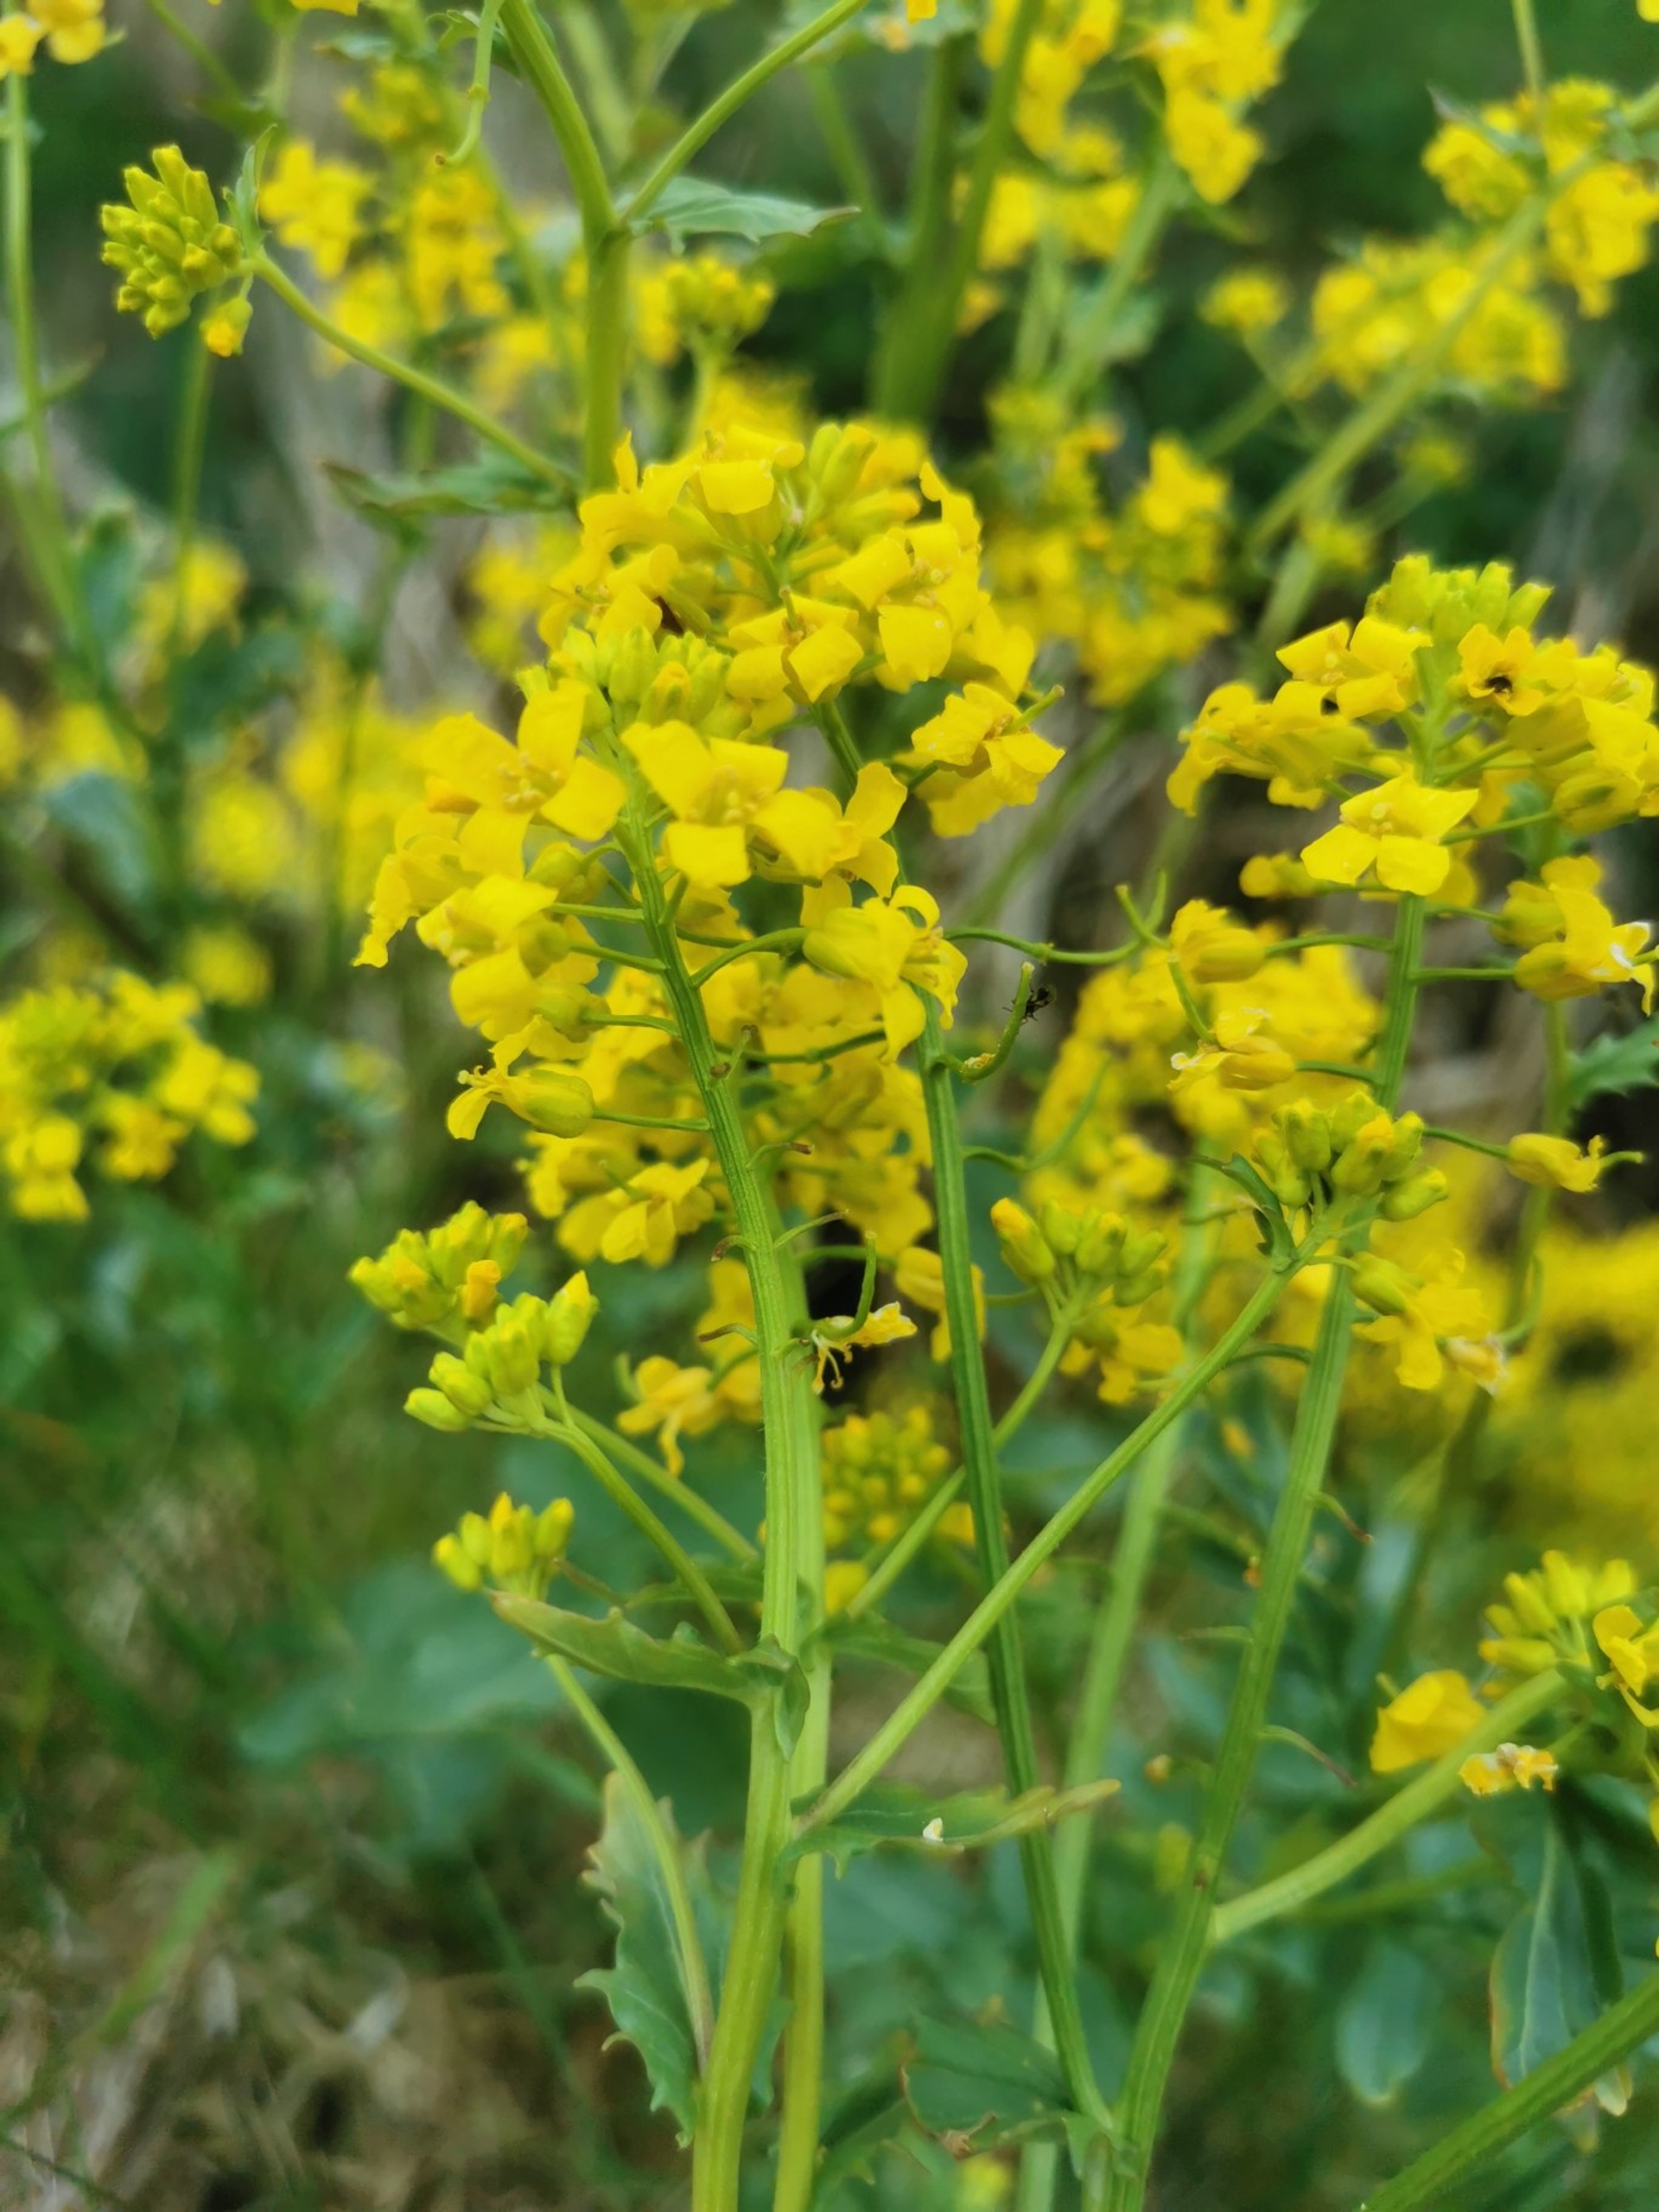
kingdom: Plantae
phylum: Tracheophyta
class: Magnoliopsida
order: Brassicales
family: Brassicaceae
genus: Barbarea
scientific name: Barbarea vulgaris
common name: Udspærret vinterkarse
